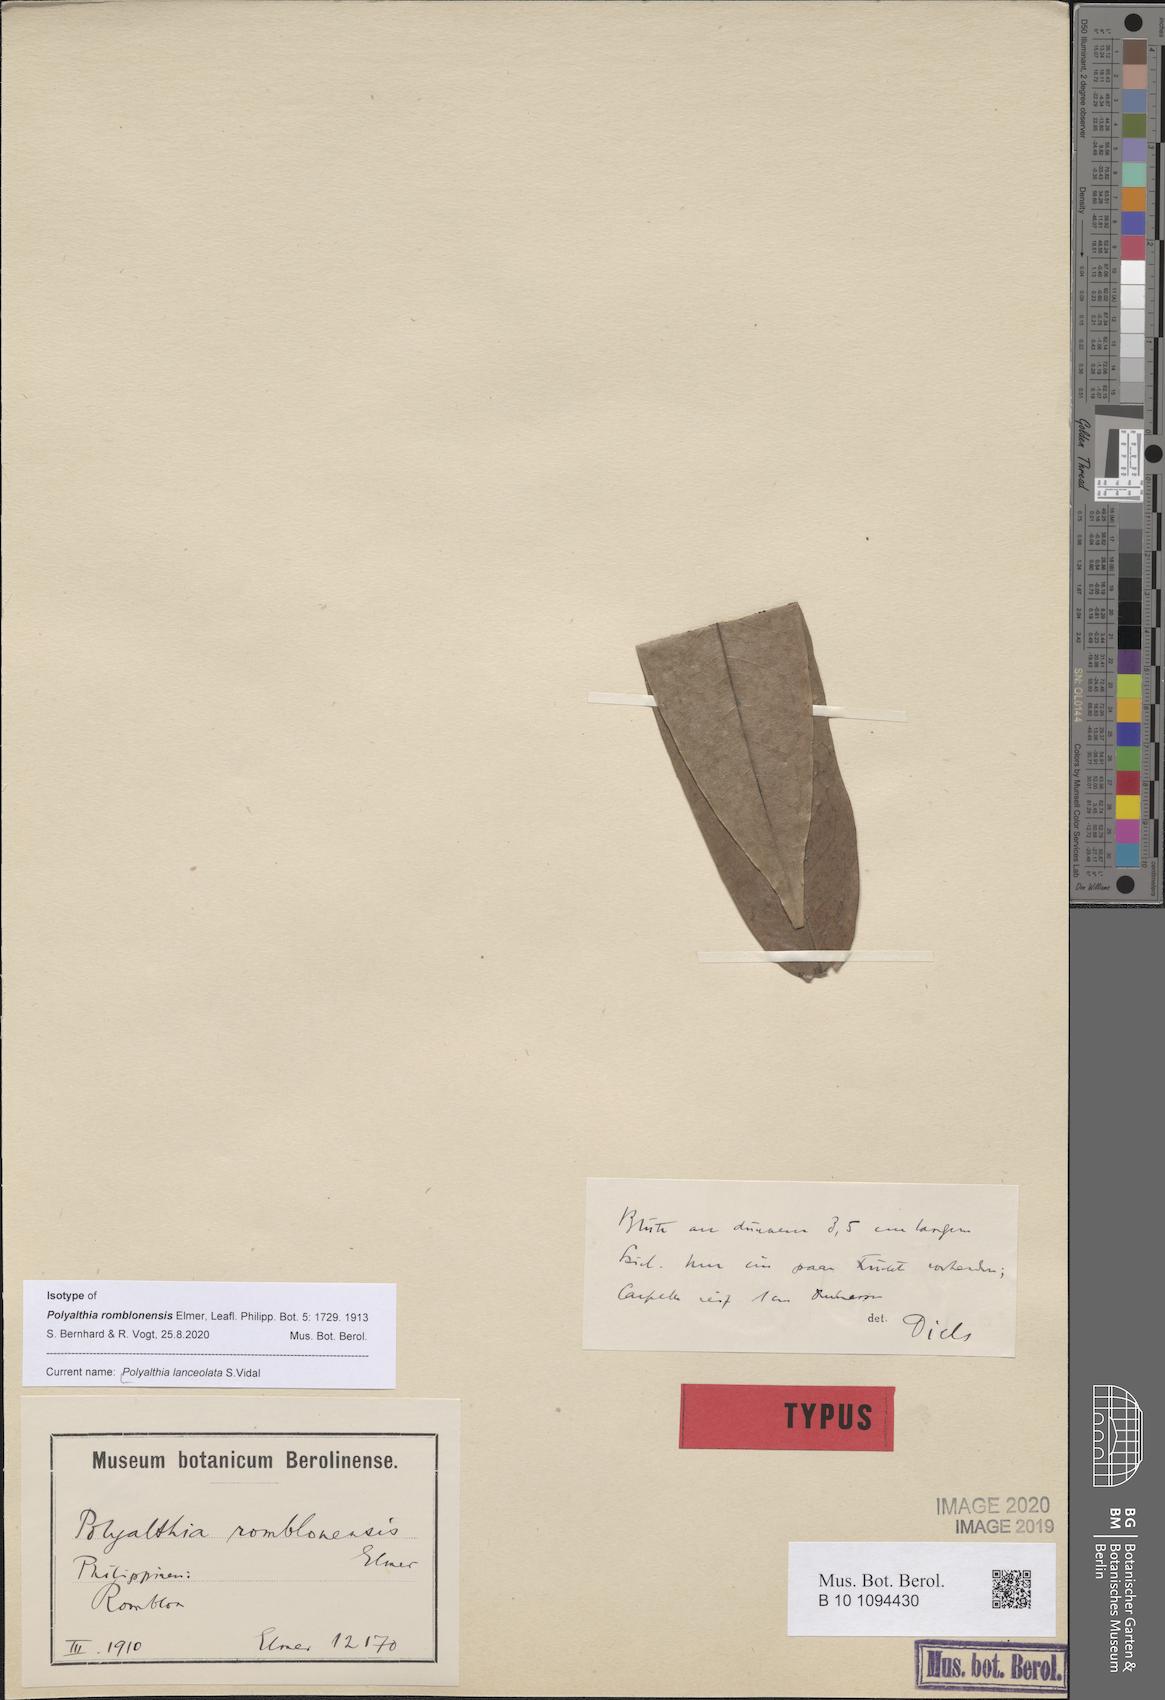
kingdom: Plantae
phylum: Tracheophyta
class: Magnoliopsida
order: Magnoliales
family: Annonaceae
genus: Haplostichanthus
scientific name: Haplostichanthus lanceolata
